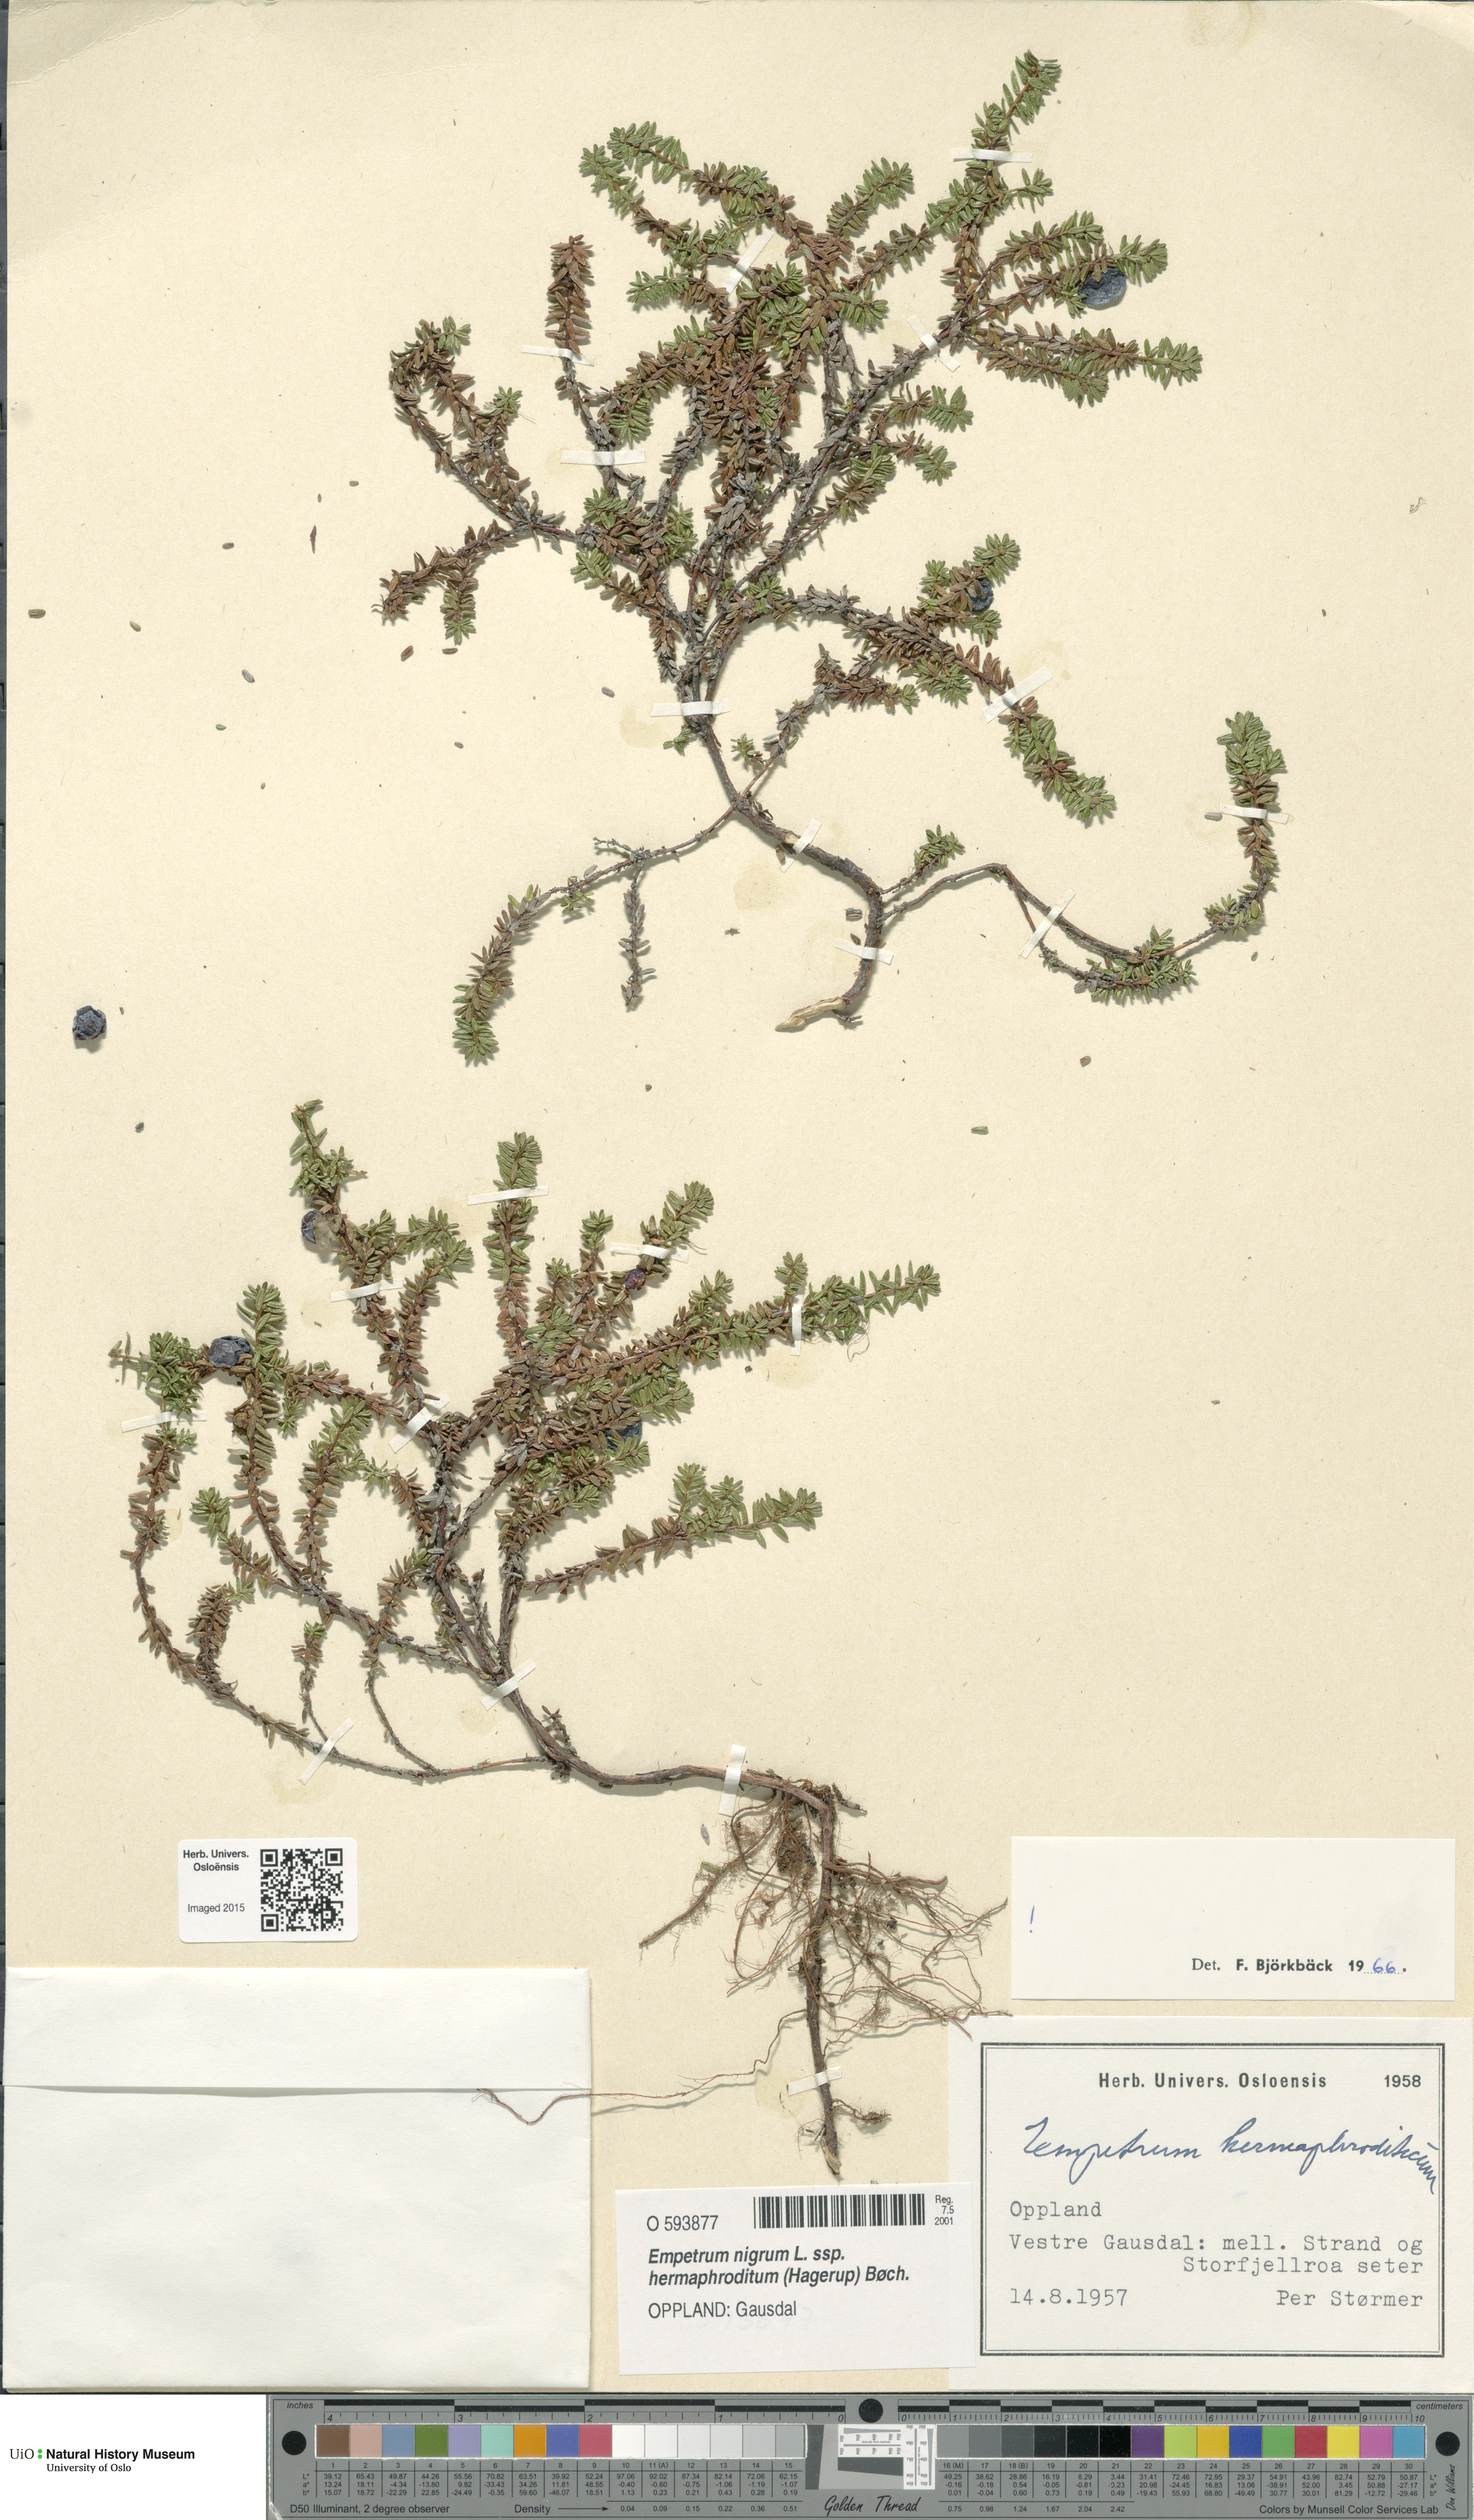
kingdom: Plantae
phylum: Tracheophyta
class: Magnoliopsida
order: Ericales
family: Ericaceae
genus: Empetrum
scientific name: Empetrum hermaphroditum
